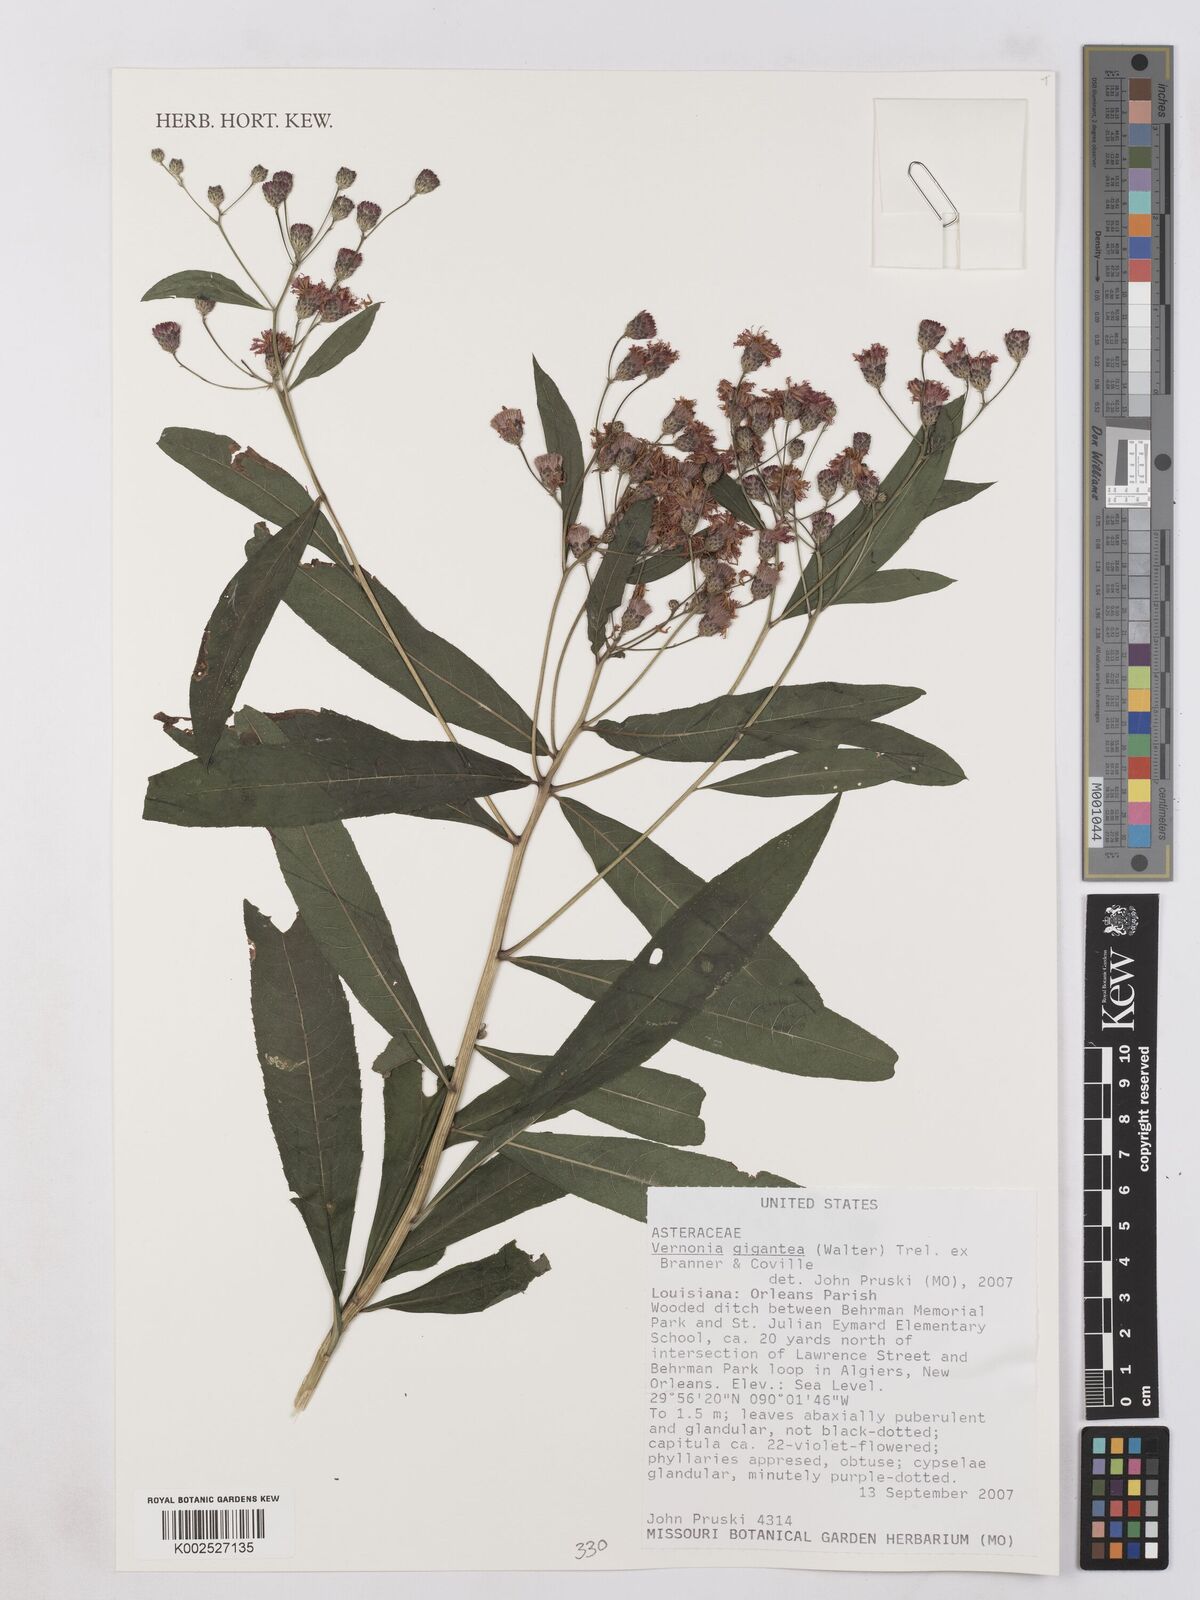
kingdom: Plantae
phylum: Tracheophyta
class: Magnoliopsida
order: Asterales
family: Asteraceae
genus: Vernonia
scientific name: Vernonia gigantea
